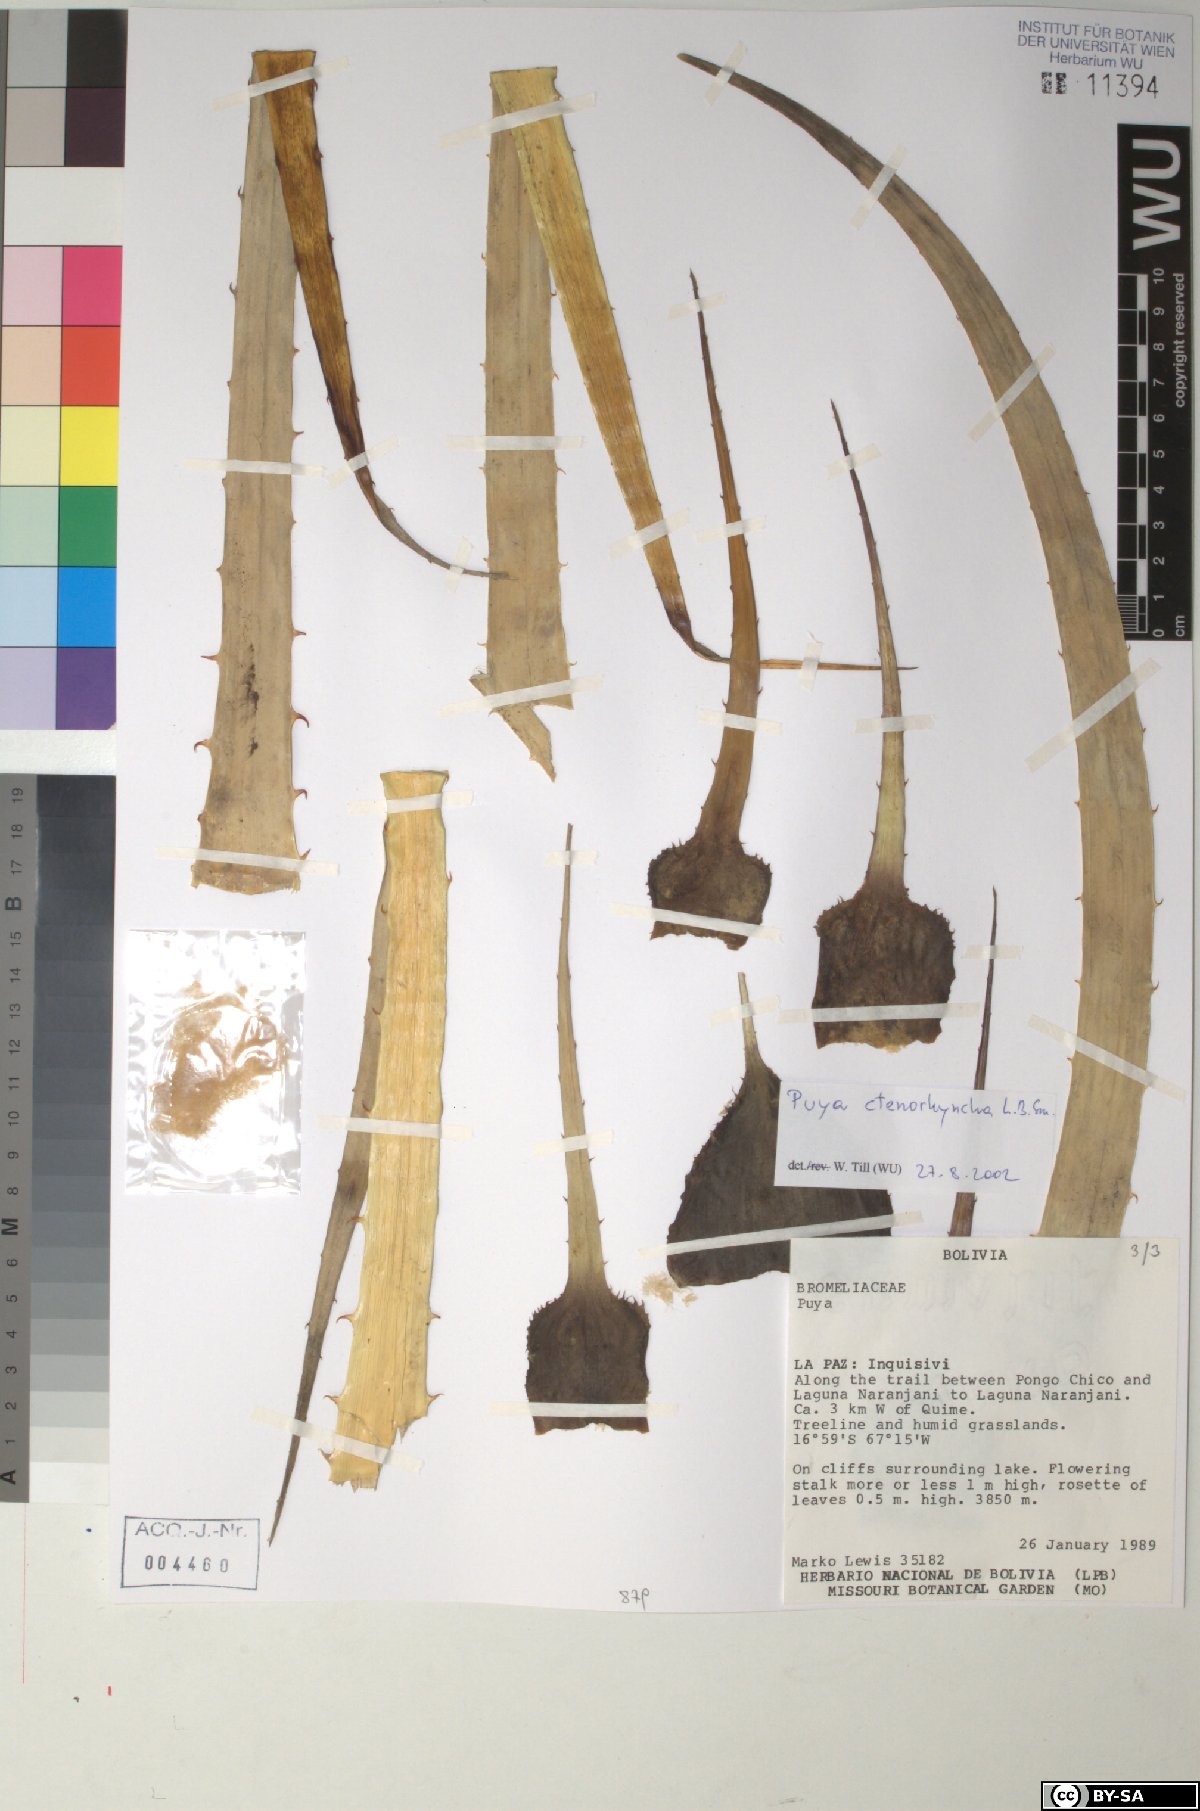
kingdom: Plantae
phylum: Tracheophyta
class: Liliopsida
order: Poales
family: Bromeliaceae
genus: Puya
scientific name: Puya ctenorhyncha
